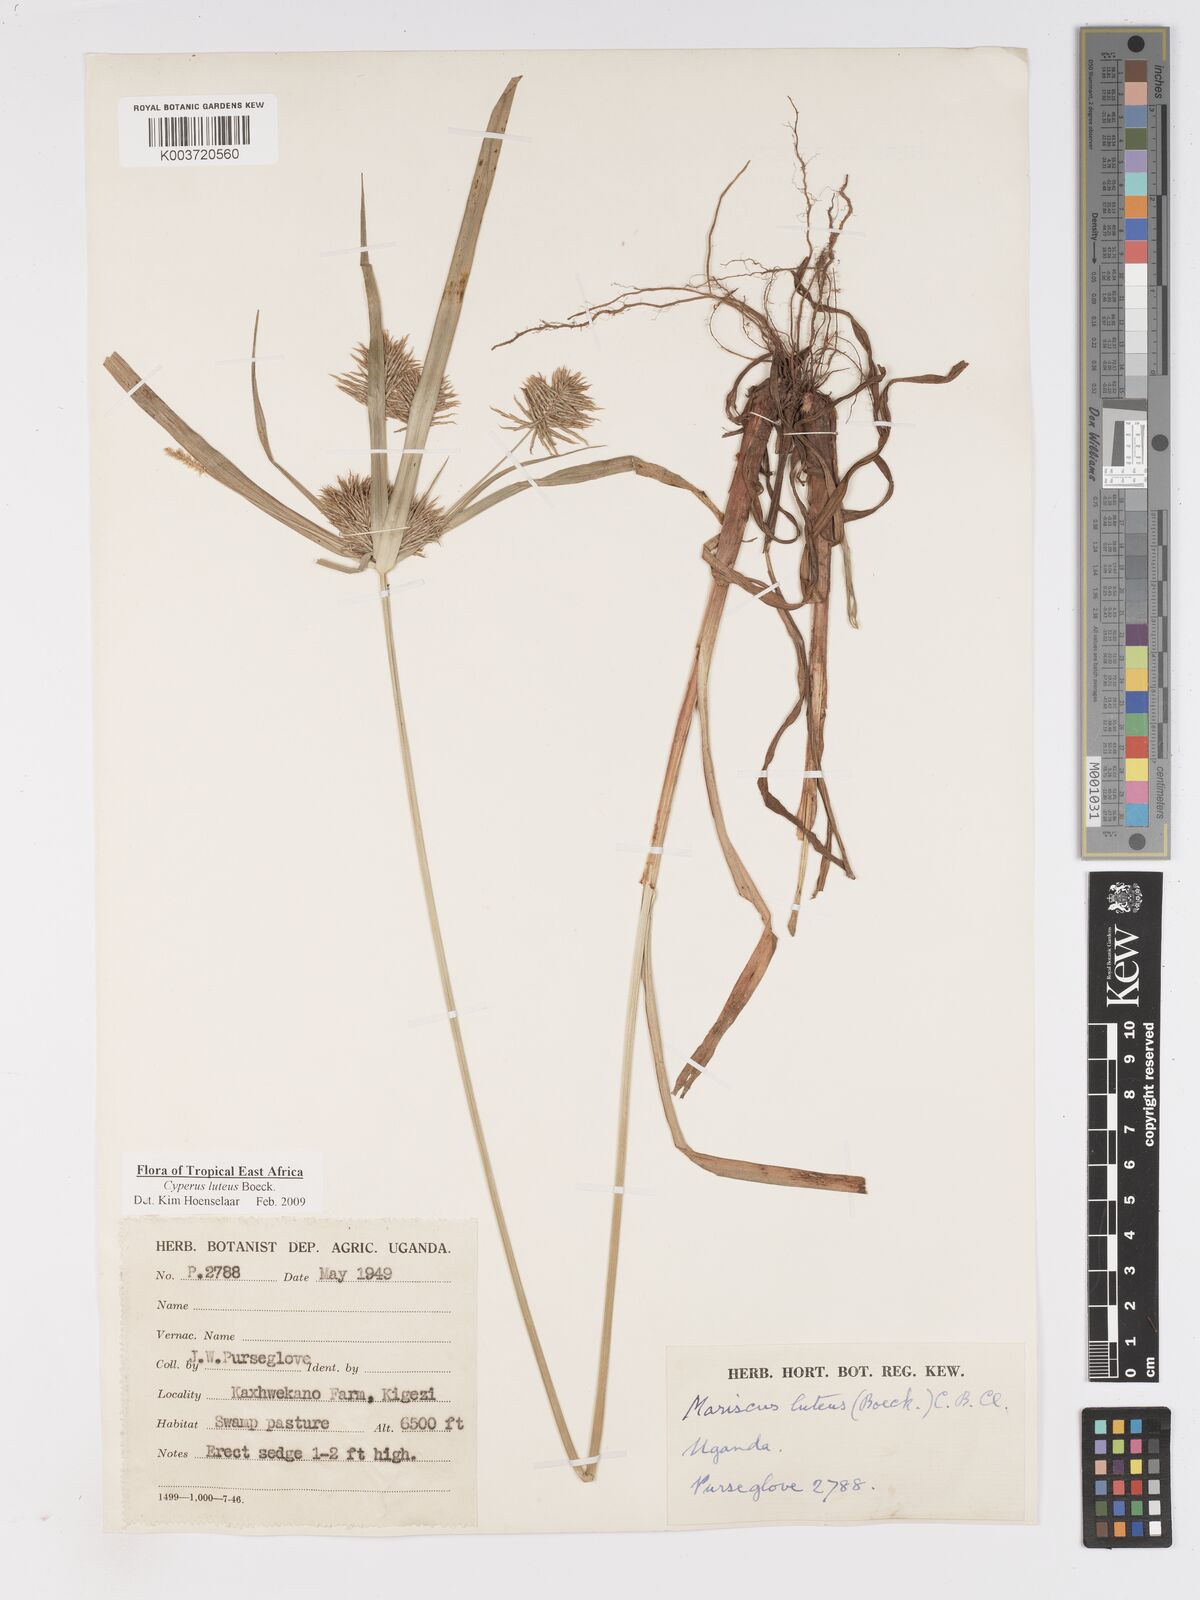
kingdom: Plantae
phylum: Tracheophyta
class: Liliopsida
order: Poales
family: Cyperaceae
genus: Cyperus
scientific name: Cyperus luteus
